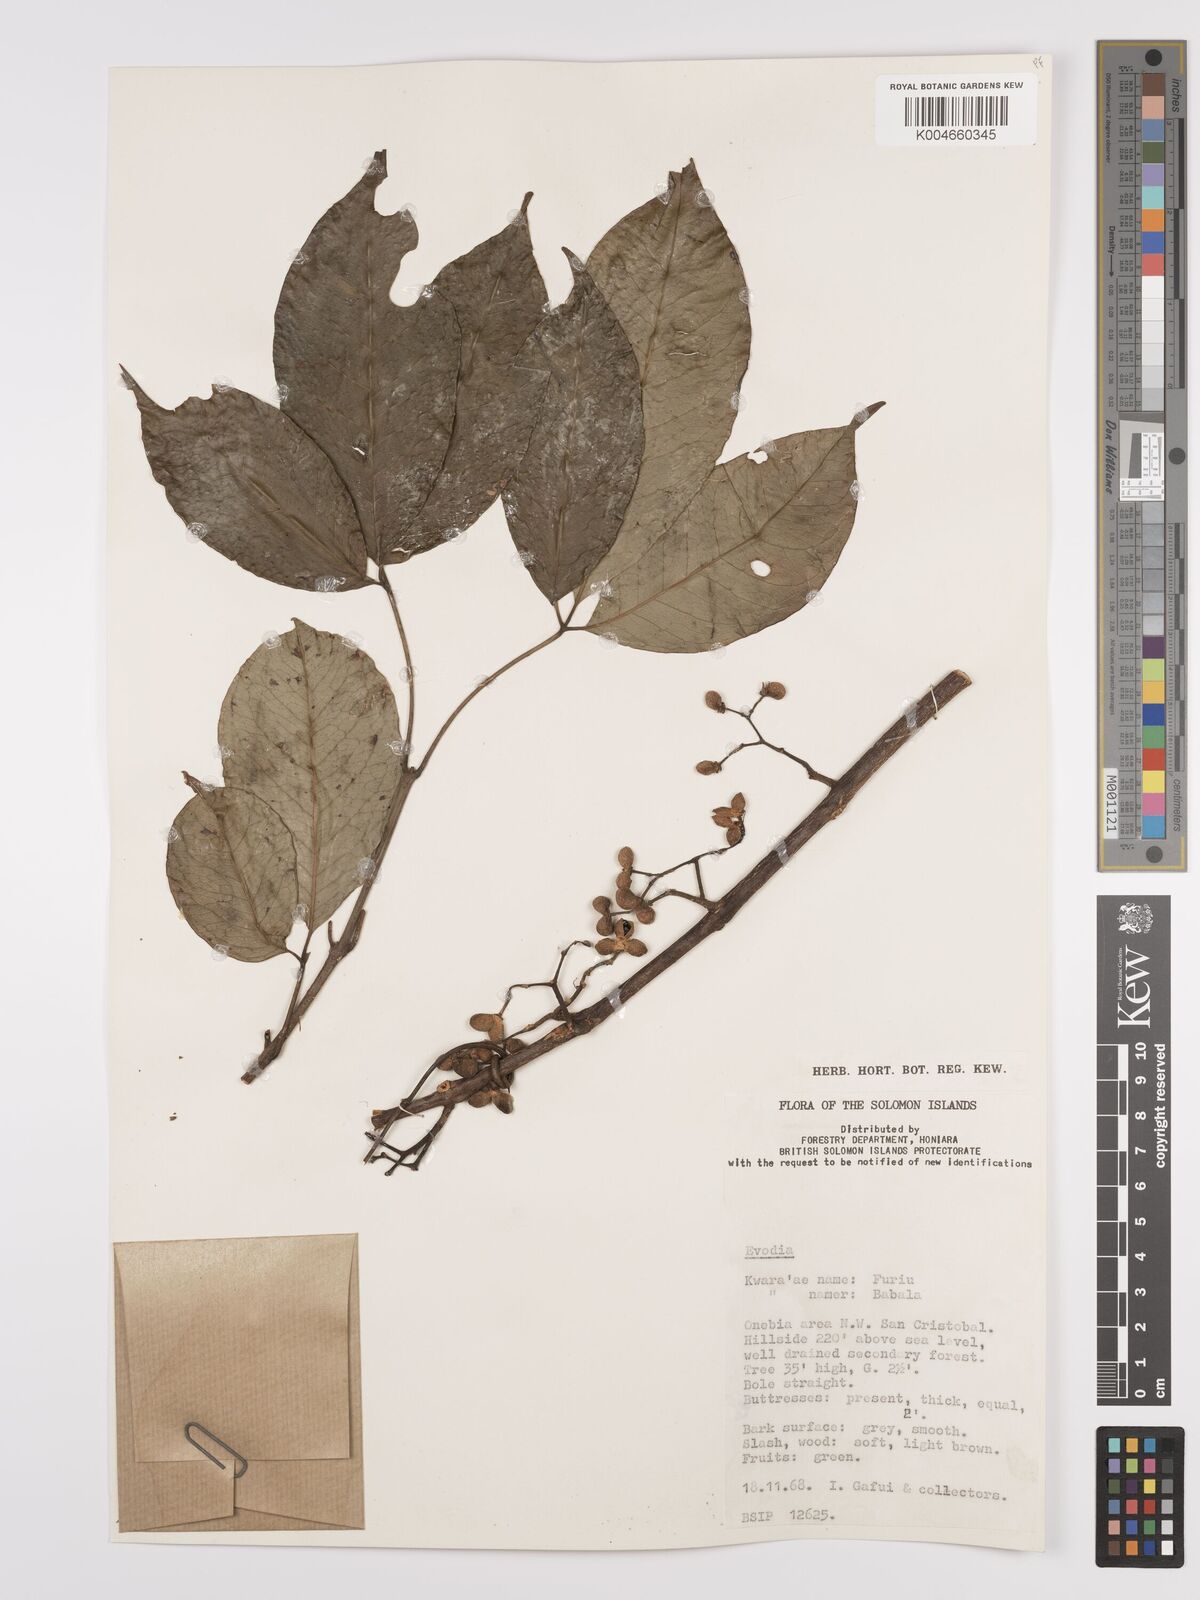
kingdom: Plantae
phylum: Tracheophyta
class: Magnoliopsida
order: Sapindales
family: Rutaceae
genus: Euodia
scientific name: Euodia
